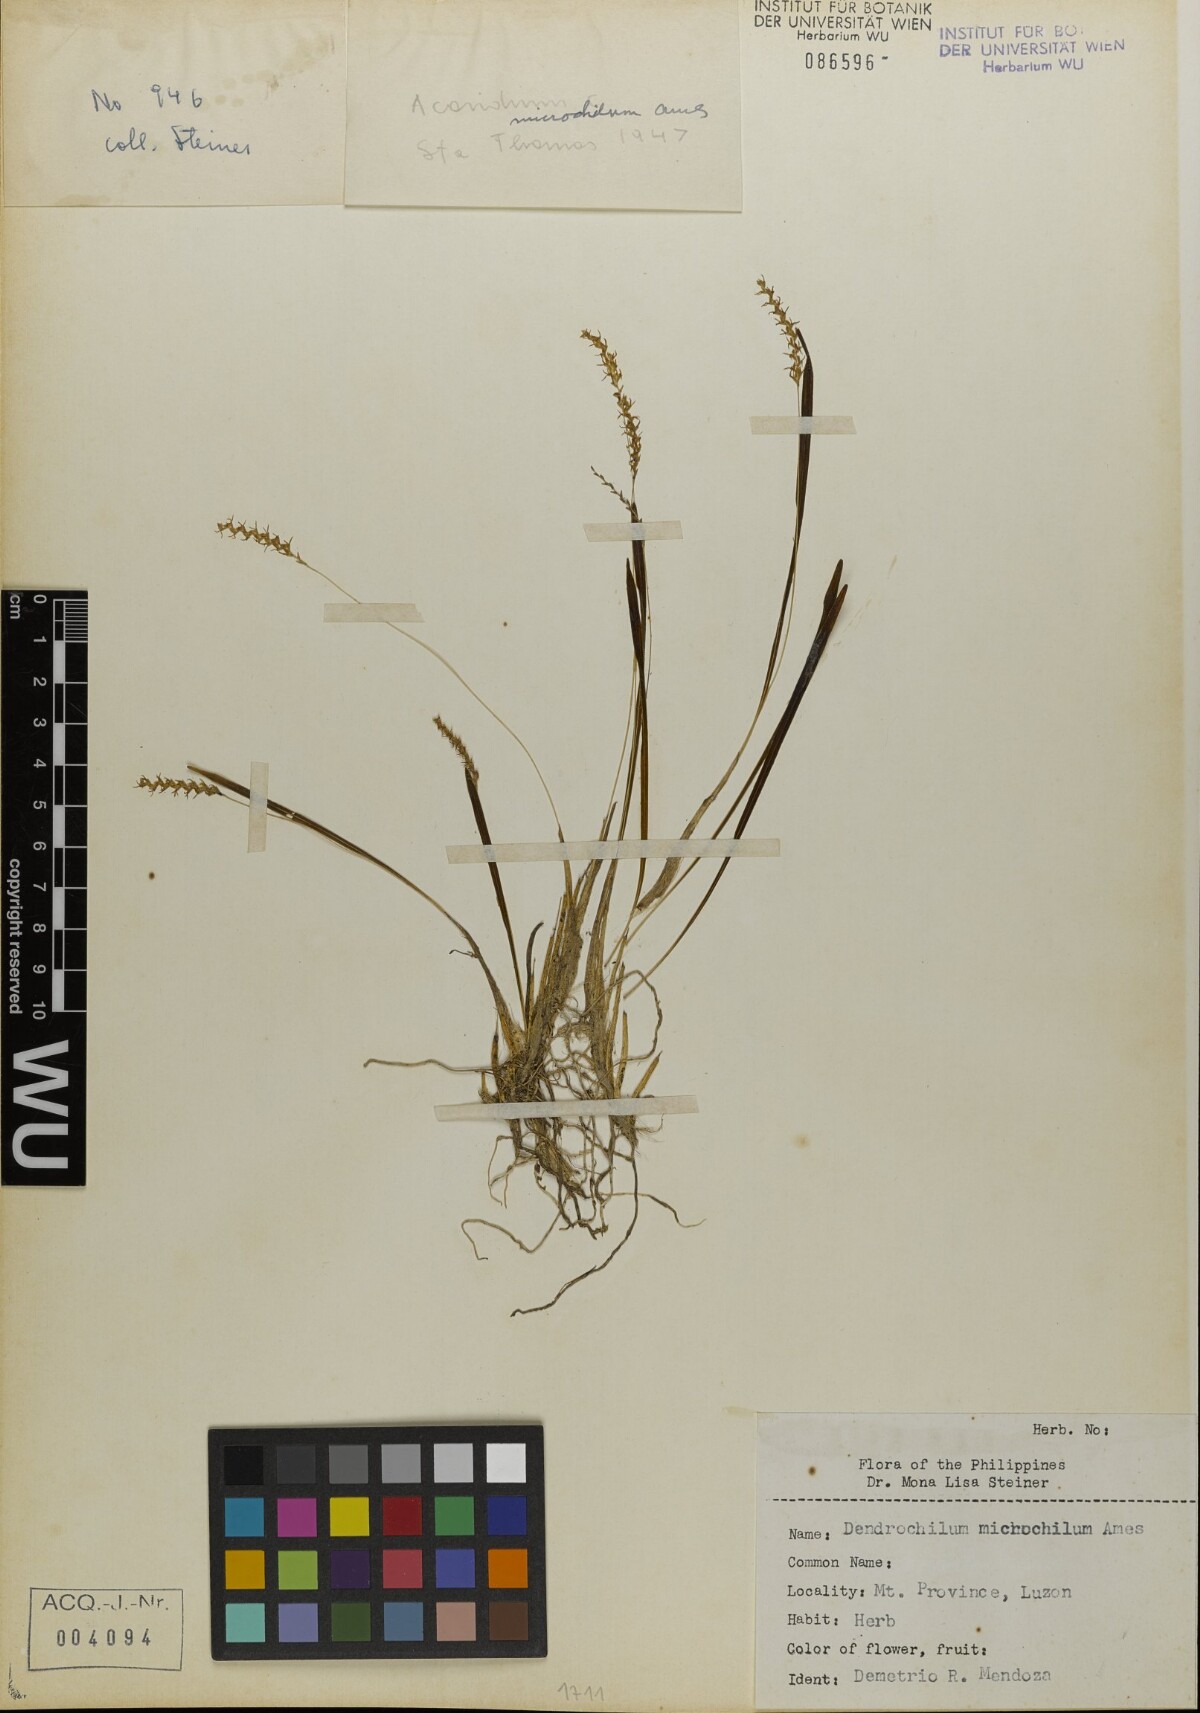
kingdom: Plantae
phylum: Tracheophyta
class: Liliopsida
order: Asparagales
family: Orchidaceae
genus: Coelogyne
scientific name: Coelogyne microchila
